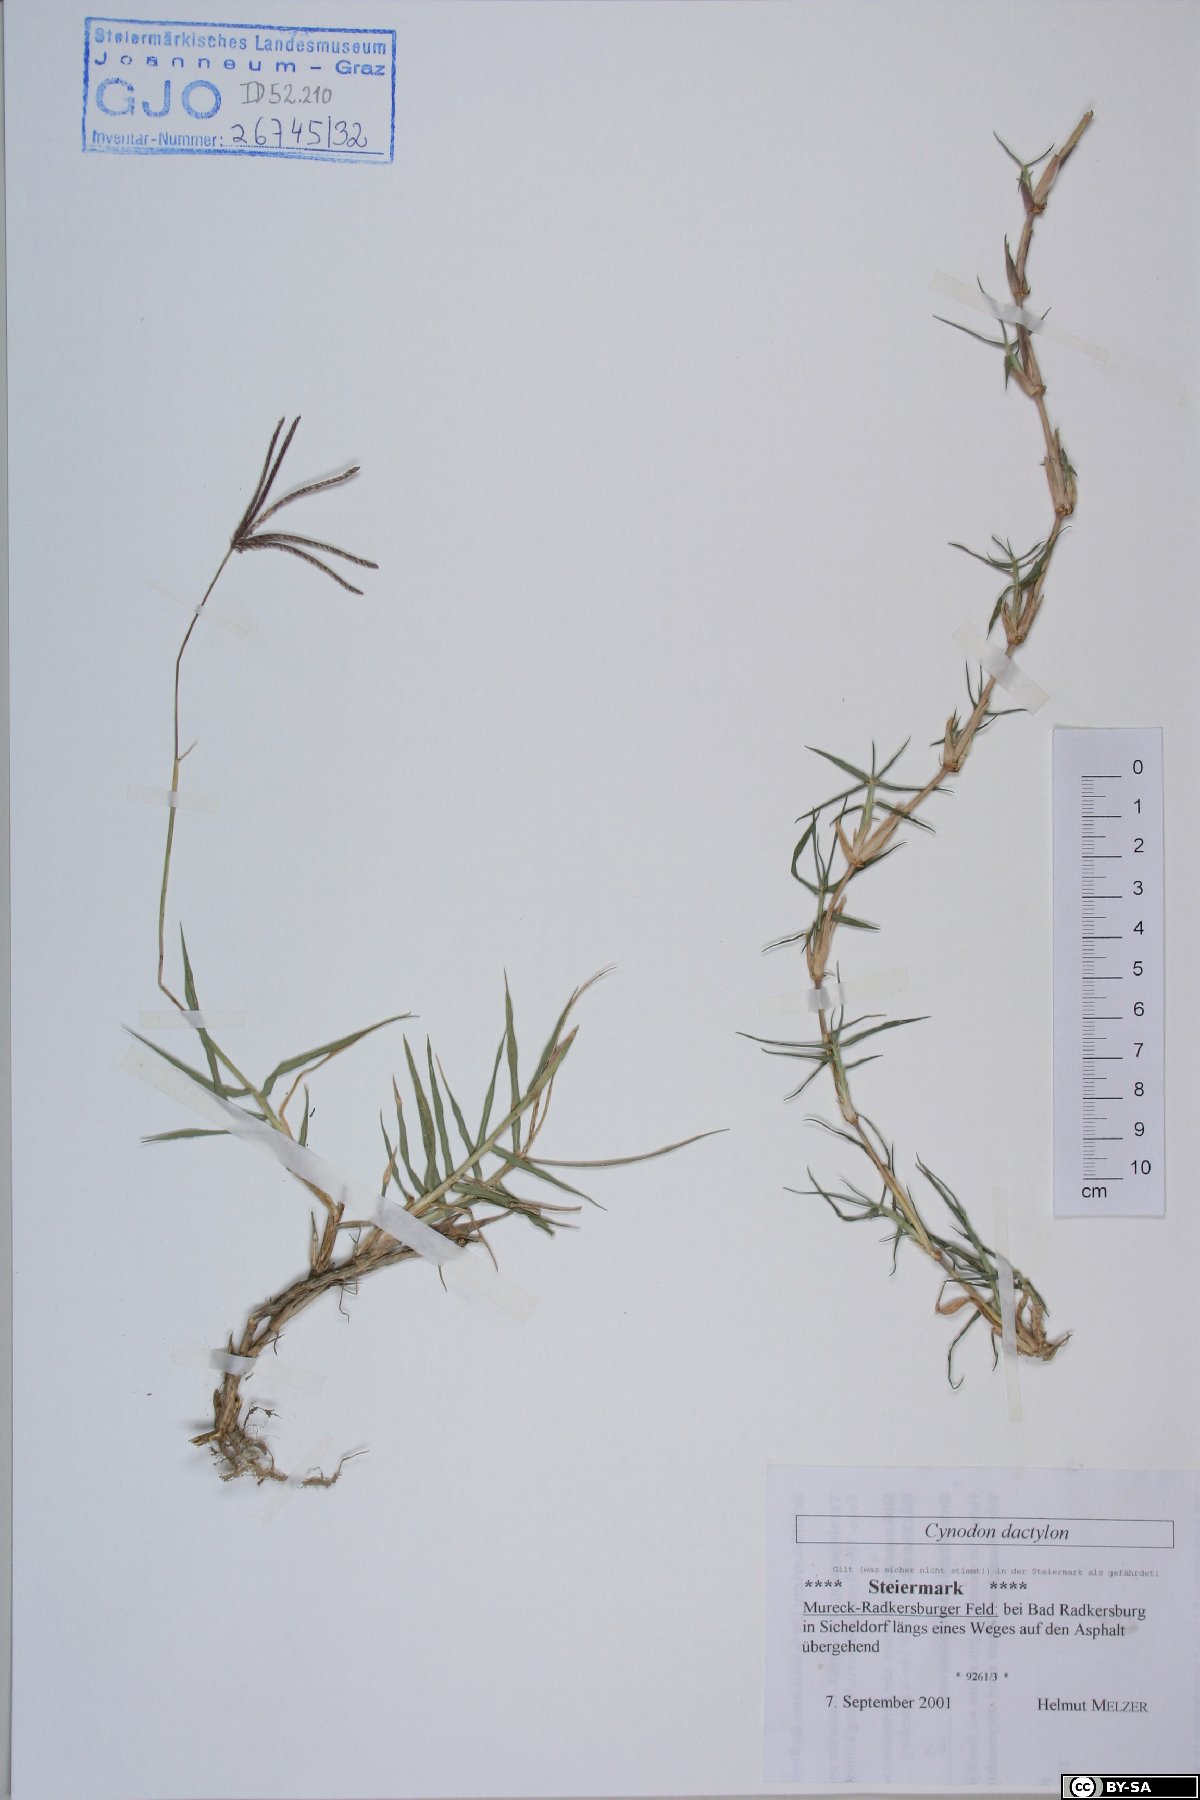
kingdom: Plantae
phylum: Tracheophyta
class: Liliopsida
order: Poales
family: Poaceae
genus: Cynodon
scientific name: Cynodon dactylon
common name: Bermuda grass
